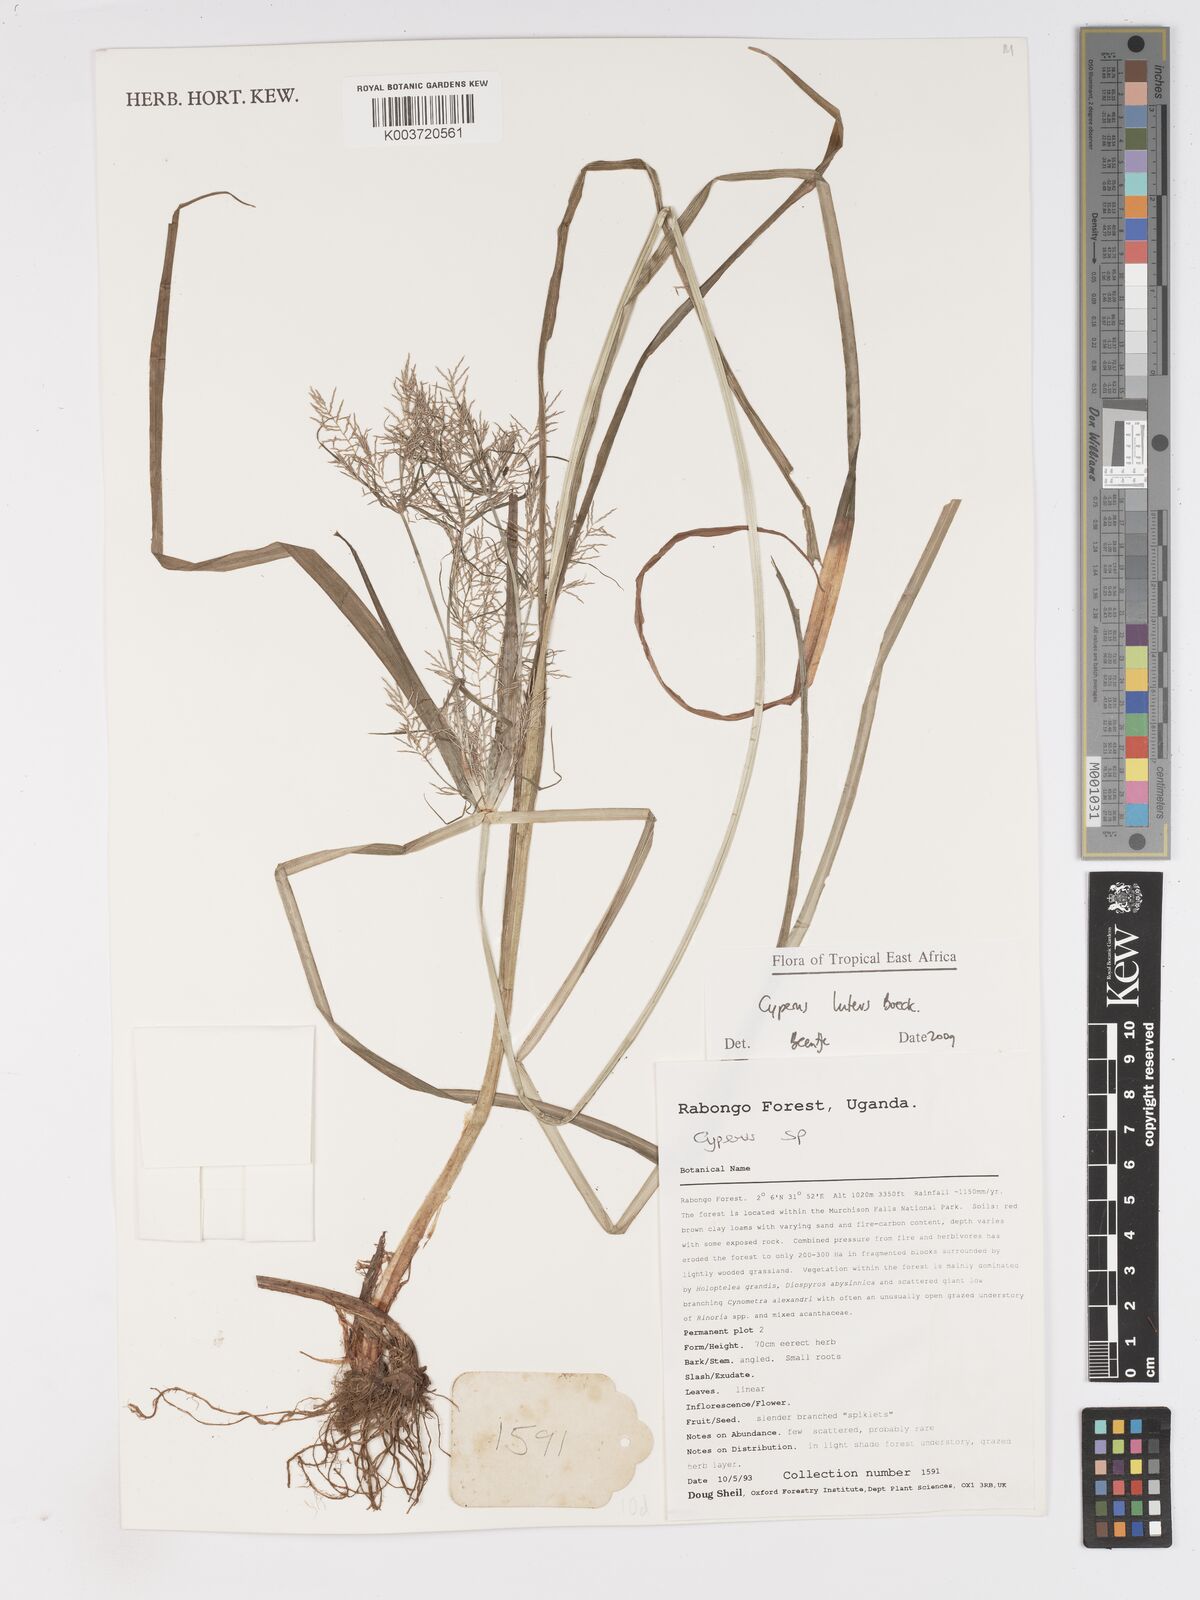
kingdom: Plantae
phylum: Tracheophyta
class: Liliopsida
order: Poales
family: Cyperaceae
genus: Cyperus
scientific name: Cyperus luteus
